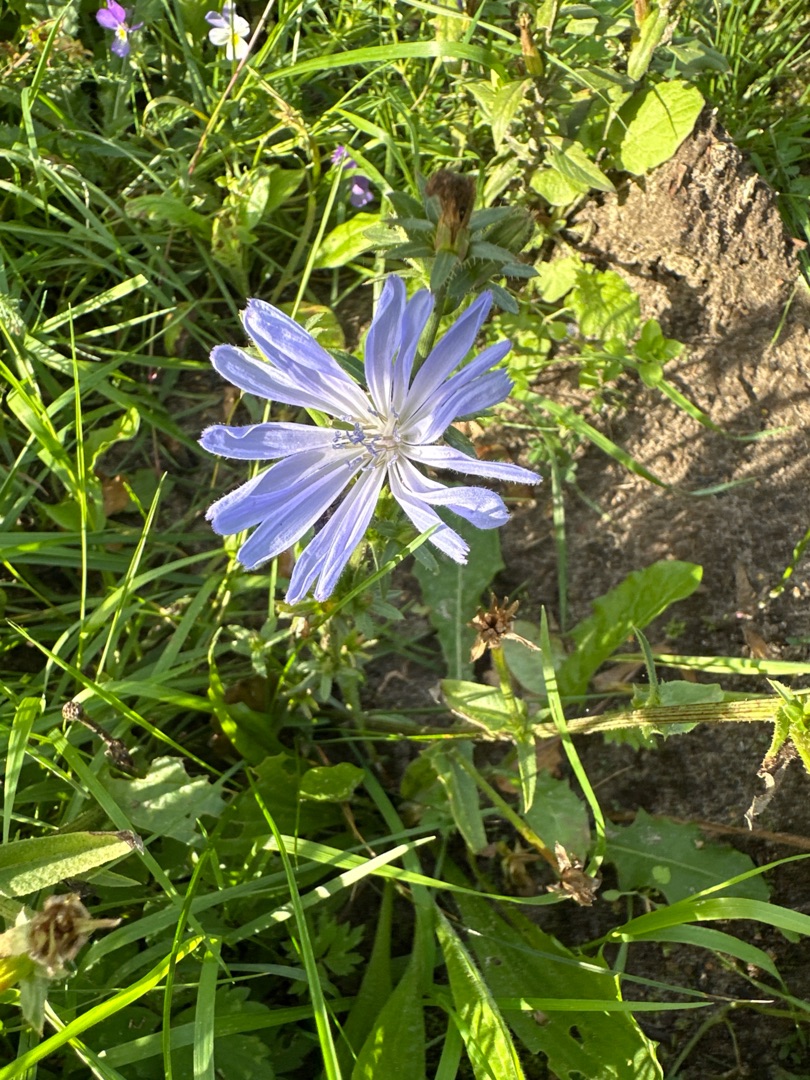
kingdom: Plantae
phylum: Tracheophyta
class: Magnoliopsida
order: Asterales
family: Asteraceae
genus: Cichorium
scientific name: Cichorium intybus
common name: Cikorie
